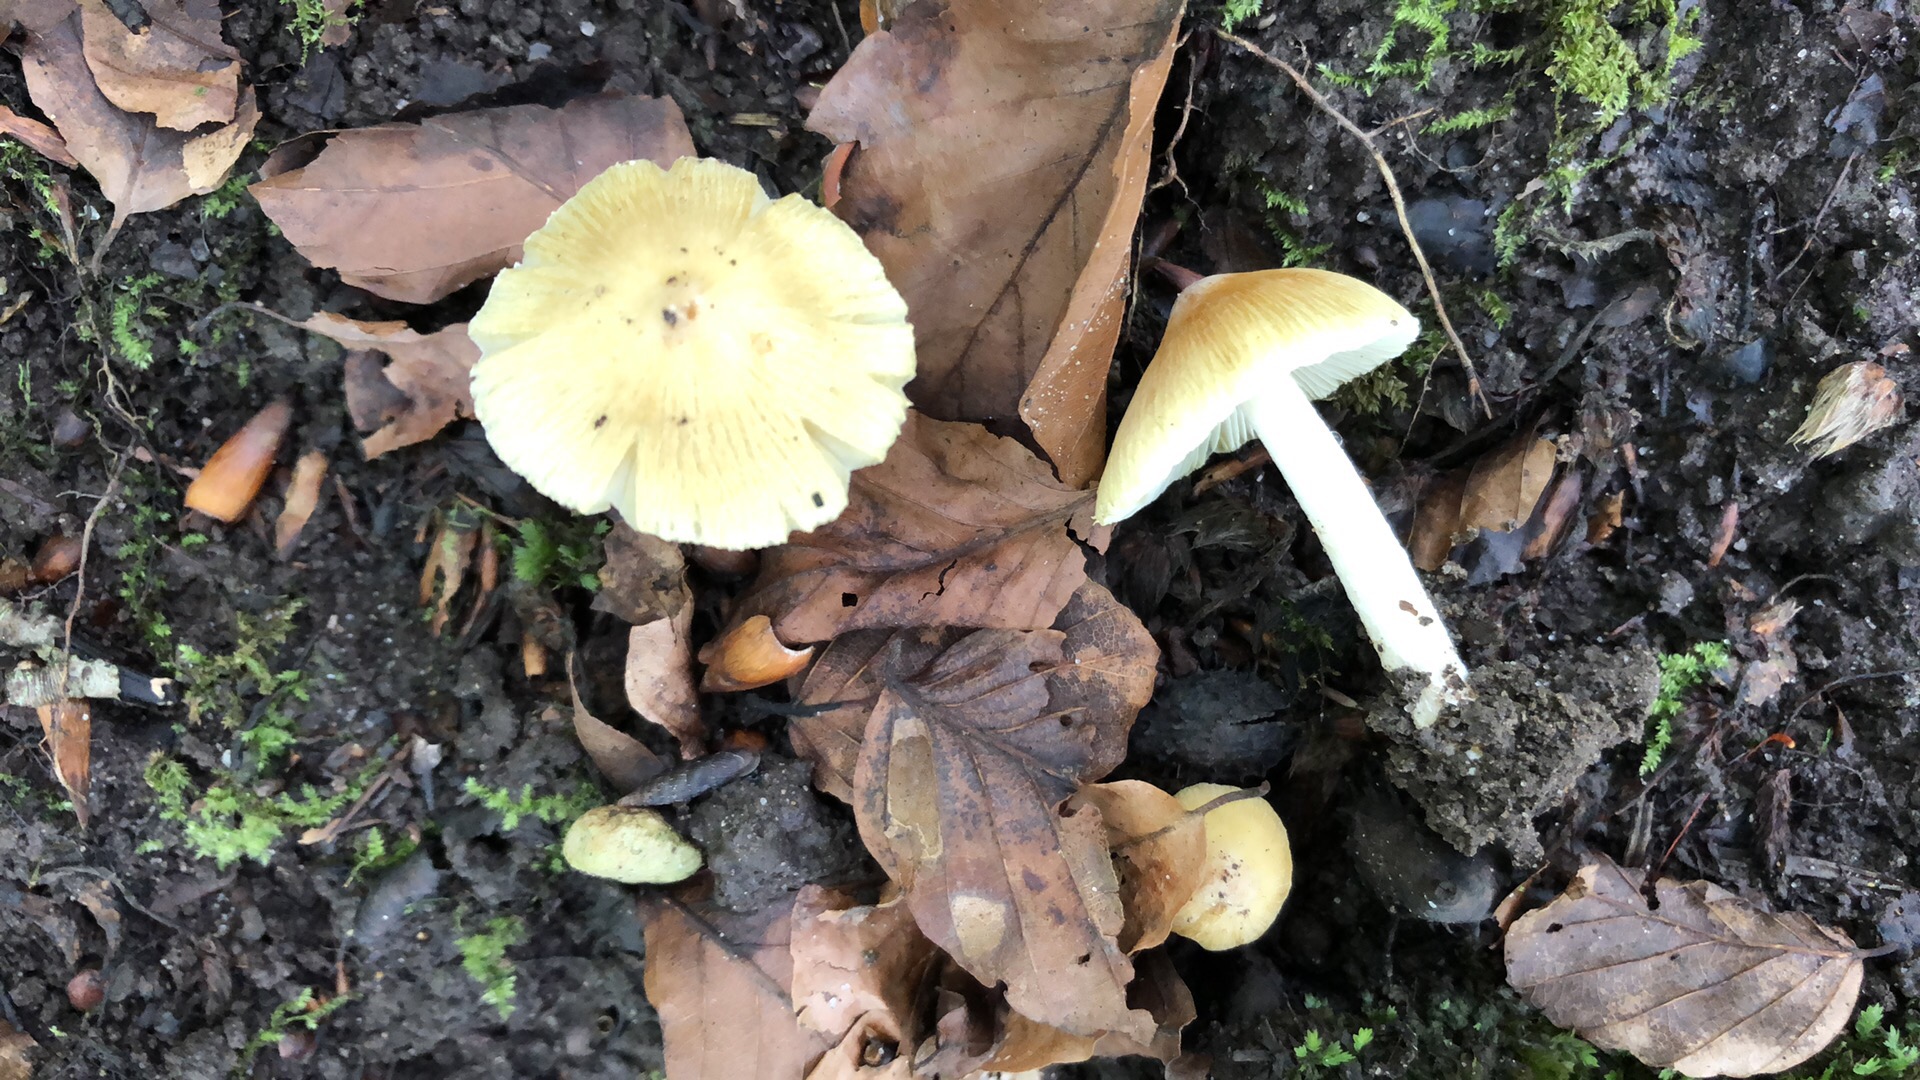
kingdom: Fungi
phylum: Basidiomycota
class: Agaricomycetes
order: Agaricales
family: Inocybaceae
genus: Pseudosperma
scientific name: Pseudosperma
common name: trævlhat
